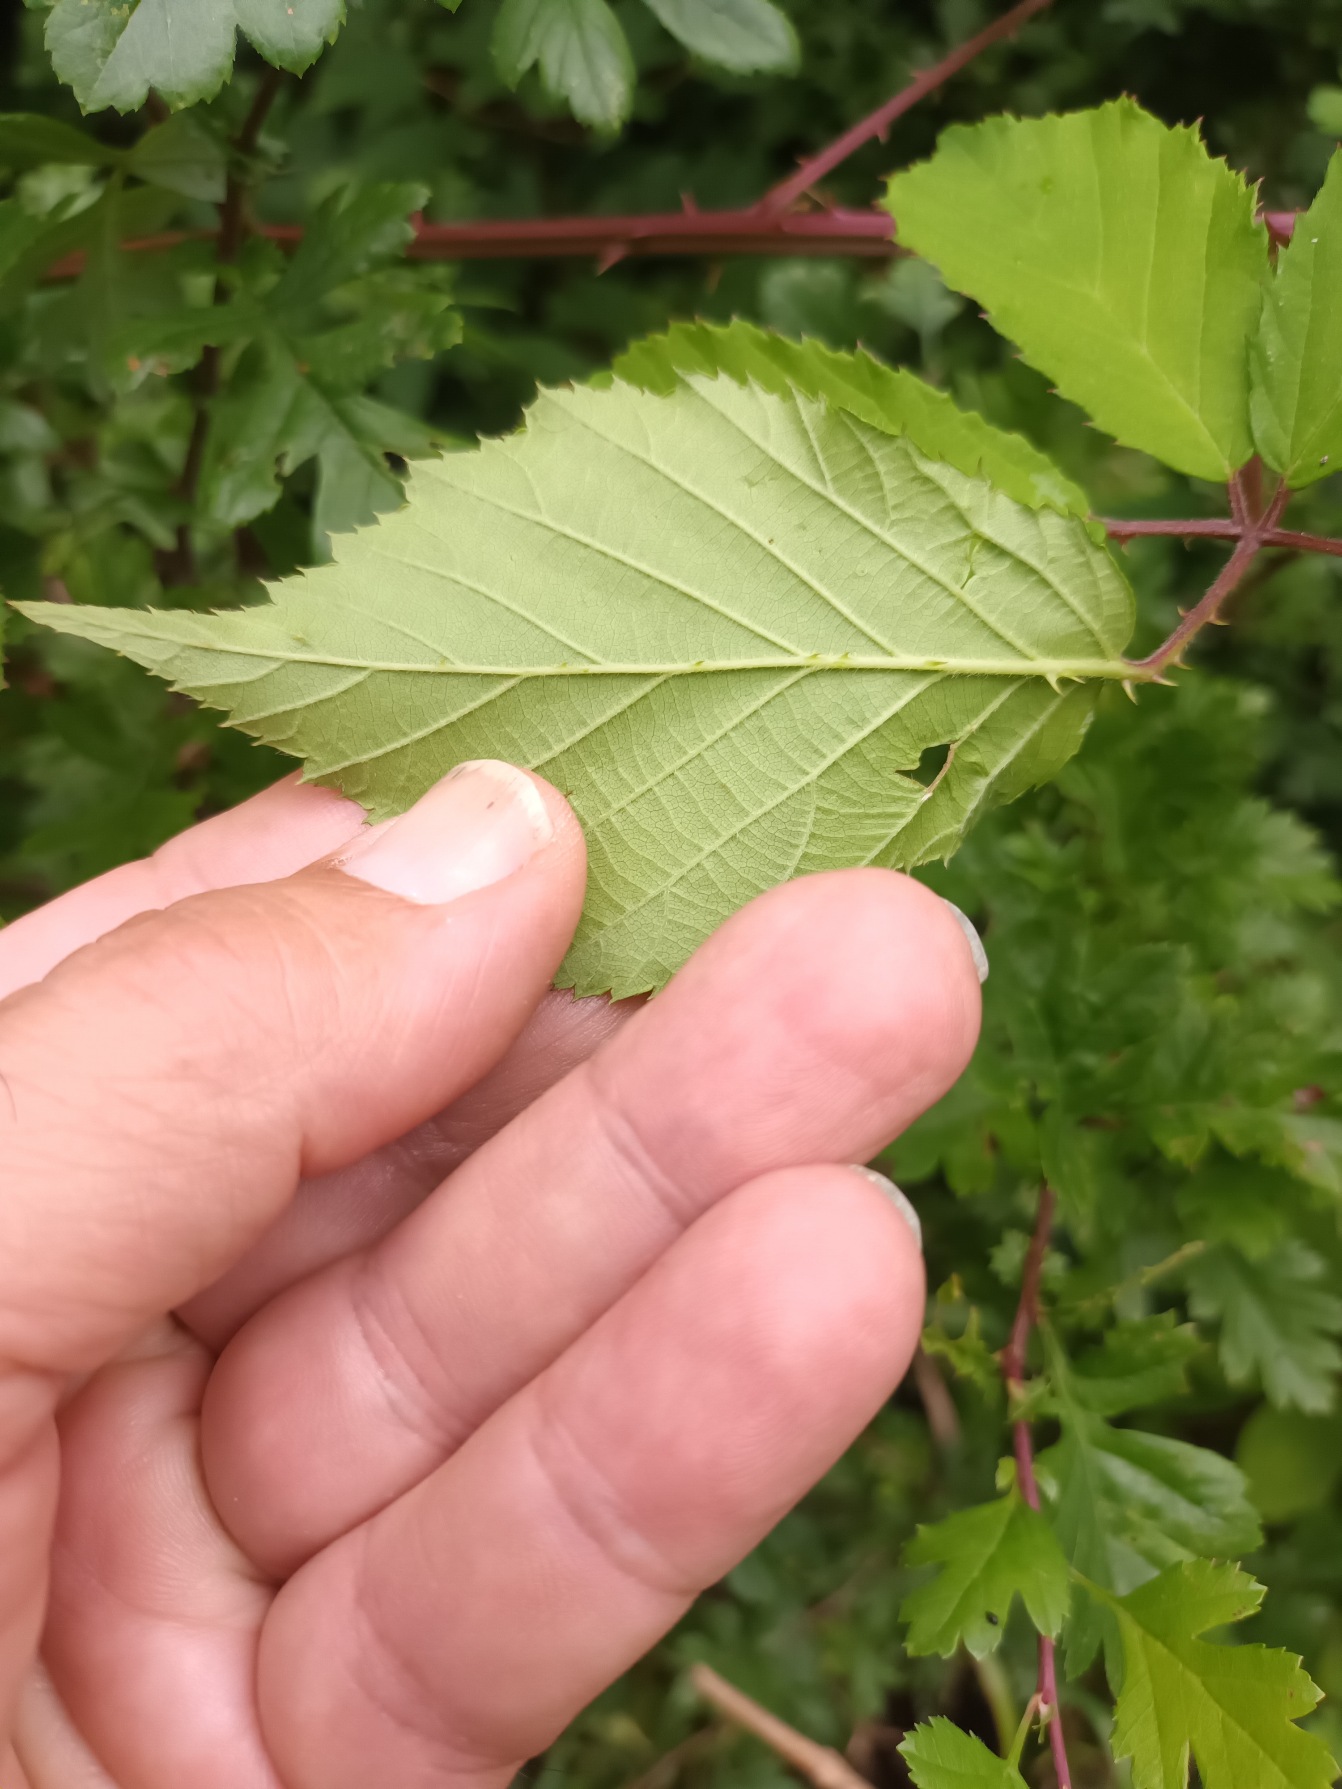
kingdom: Plantae
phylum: Tracheophyta
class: Magnoliopsida
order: Rosales
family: Rosaceae
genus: Rubus
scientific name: Rubus gratus
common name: Smuk brombær
